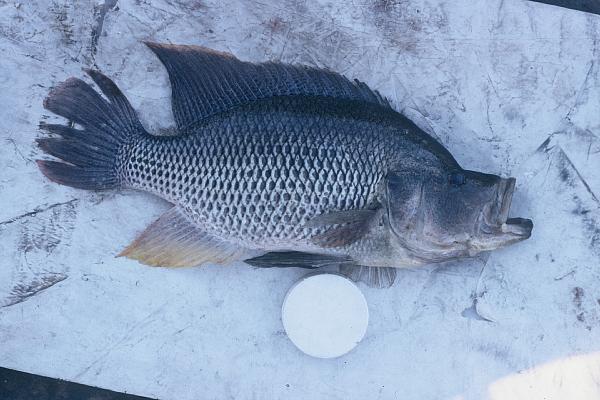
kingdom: Animalia
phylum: Chordata
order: Perciformes
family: Cichlidae
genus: Serranochromis
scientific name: Serranochromis altus
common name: Humpback largemouth
